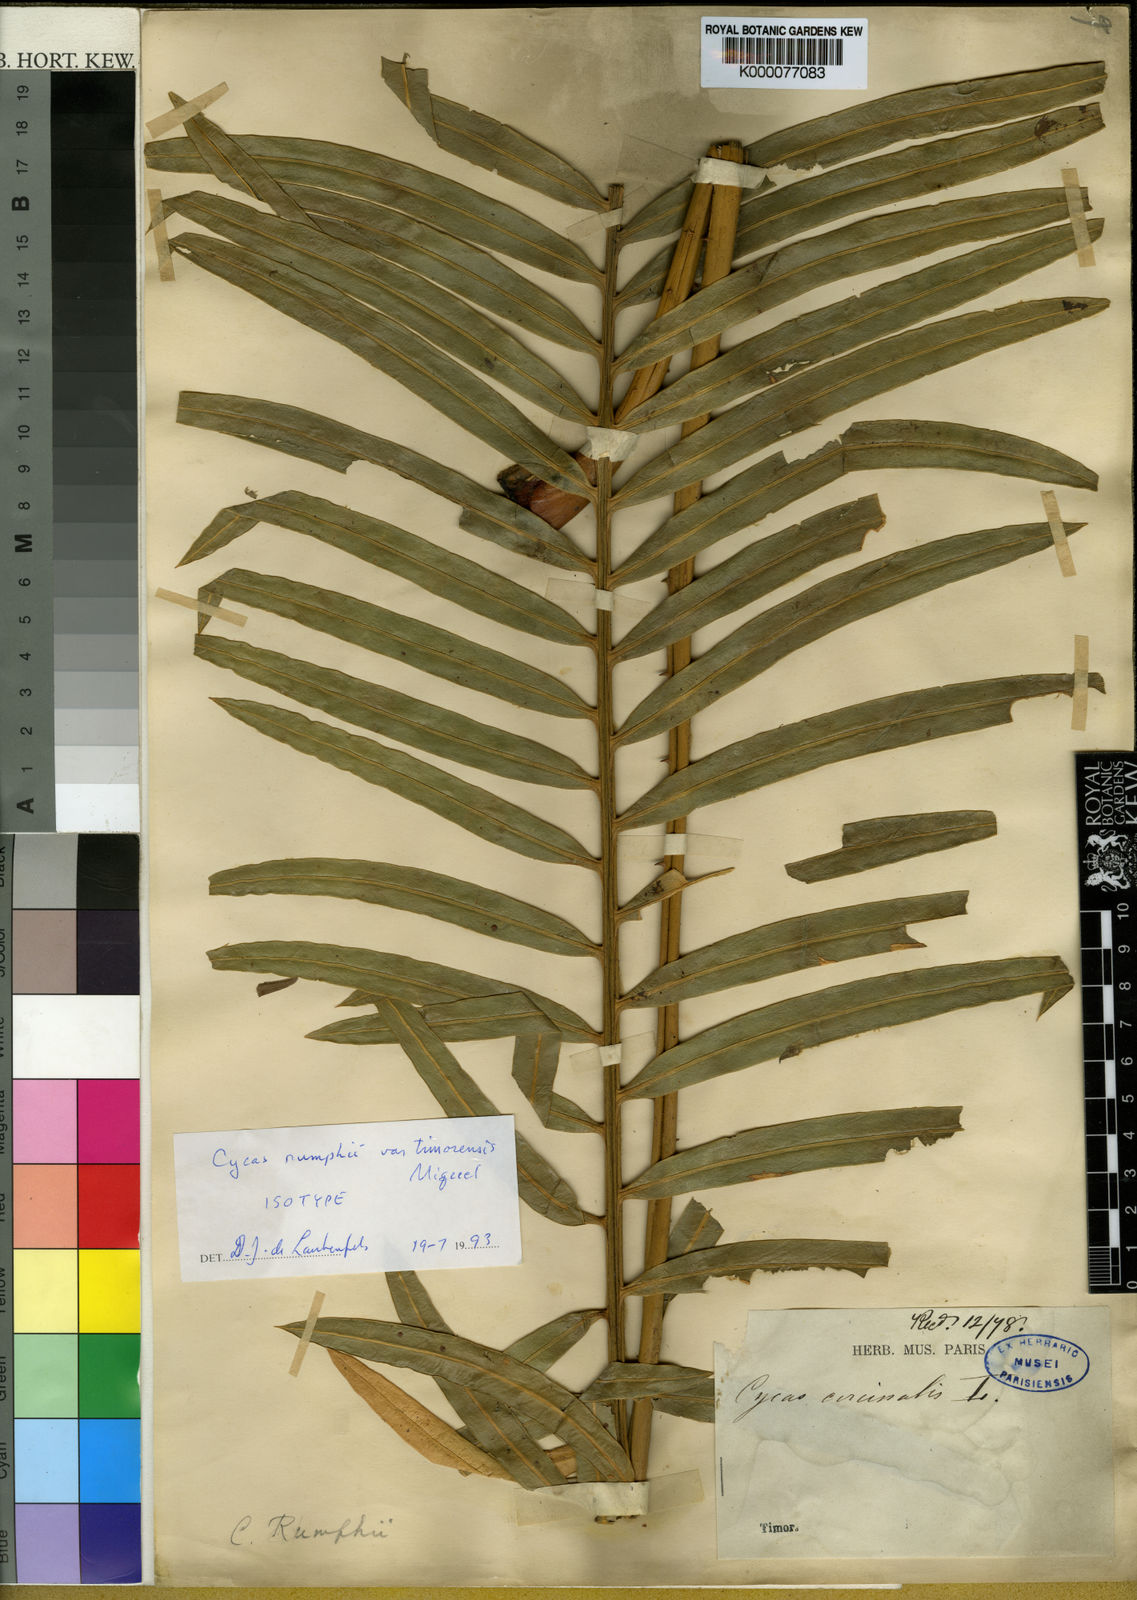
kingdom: Plantae
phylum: Tracheophyta
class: Cycadopsida
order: Cycadales
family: Cycadaceae
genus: Cycas
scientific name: Cycas rumphii
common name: Queen sago
